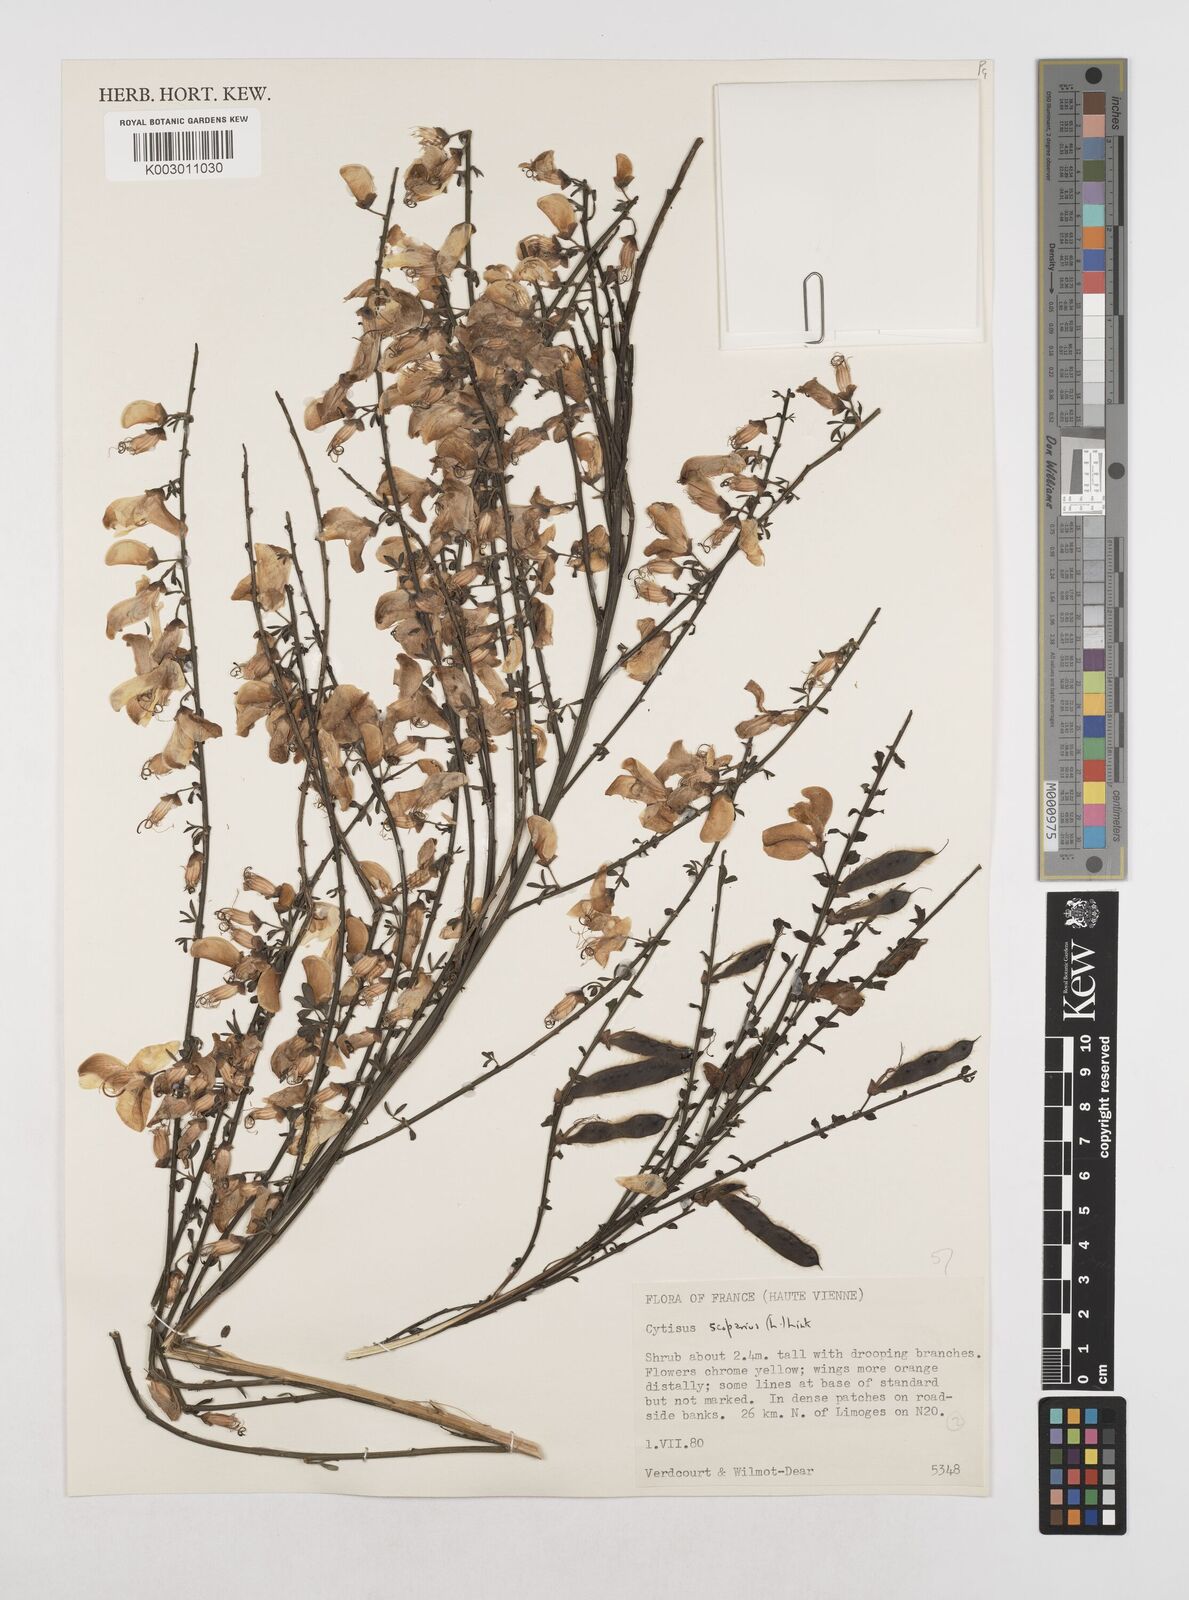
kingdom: Plantae
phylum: Tracheophyta
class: Magnoliopsida
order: Fabales
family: Fabaceae
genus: Cytisus
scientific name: Cytisus scoparius
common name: Scotch broom
